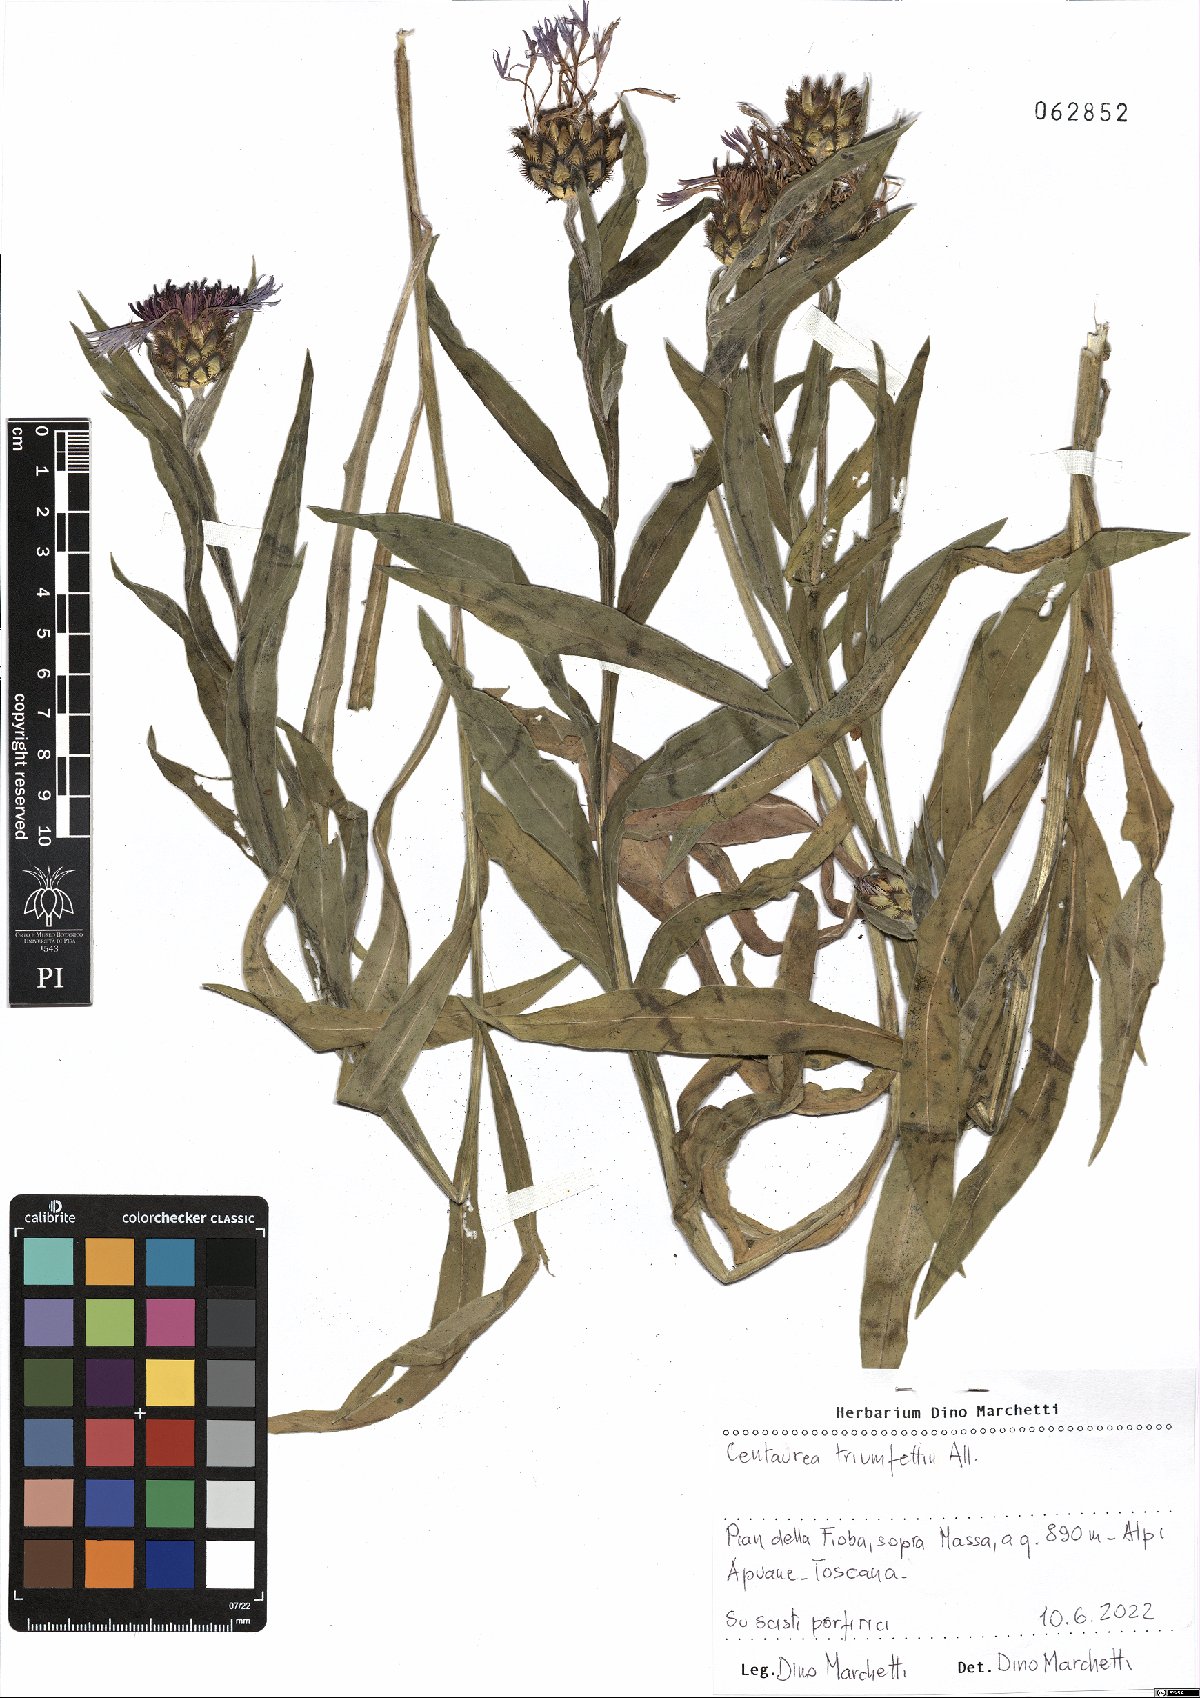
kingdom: Plantae
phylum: Tracheophyta
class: Magnoliopsida
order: Asterales
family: Asteraceae
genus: Centaurea
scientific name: Centaurea triumfettii
